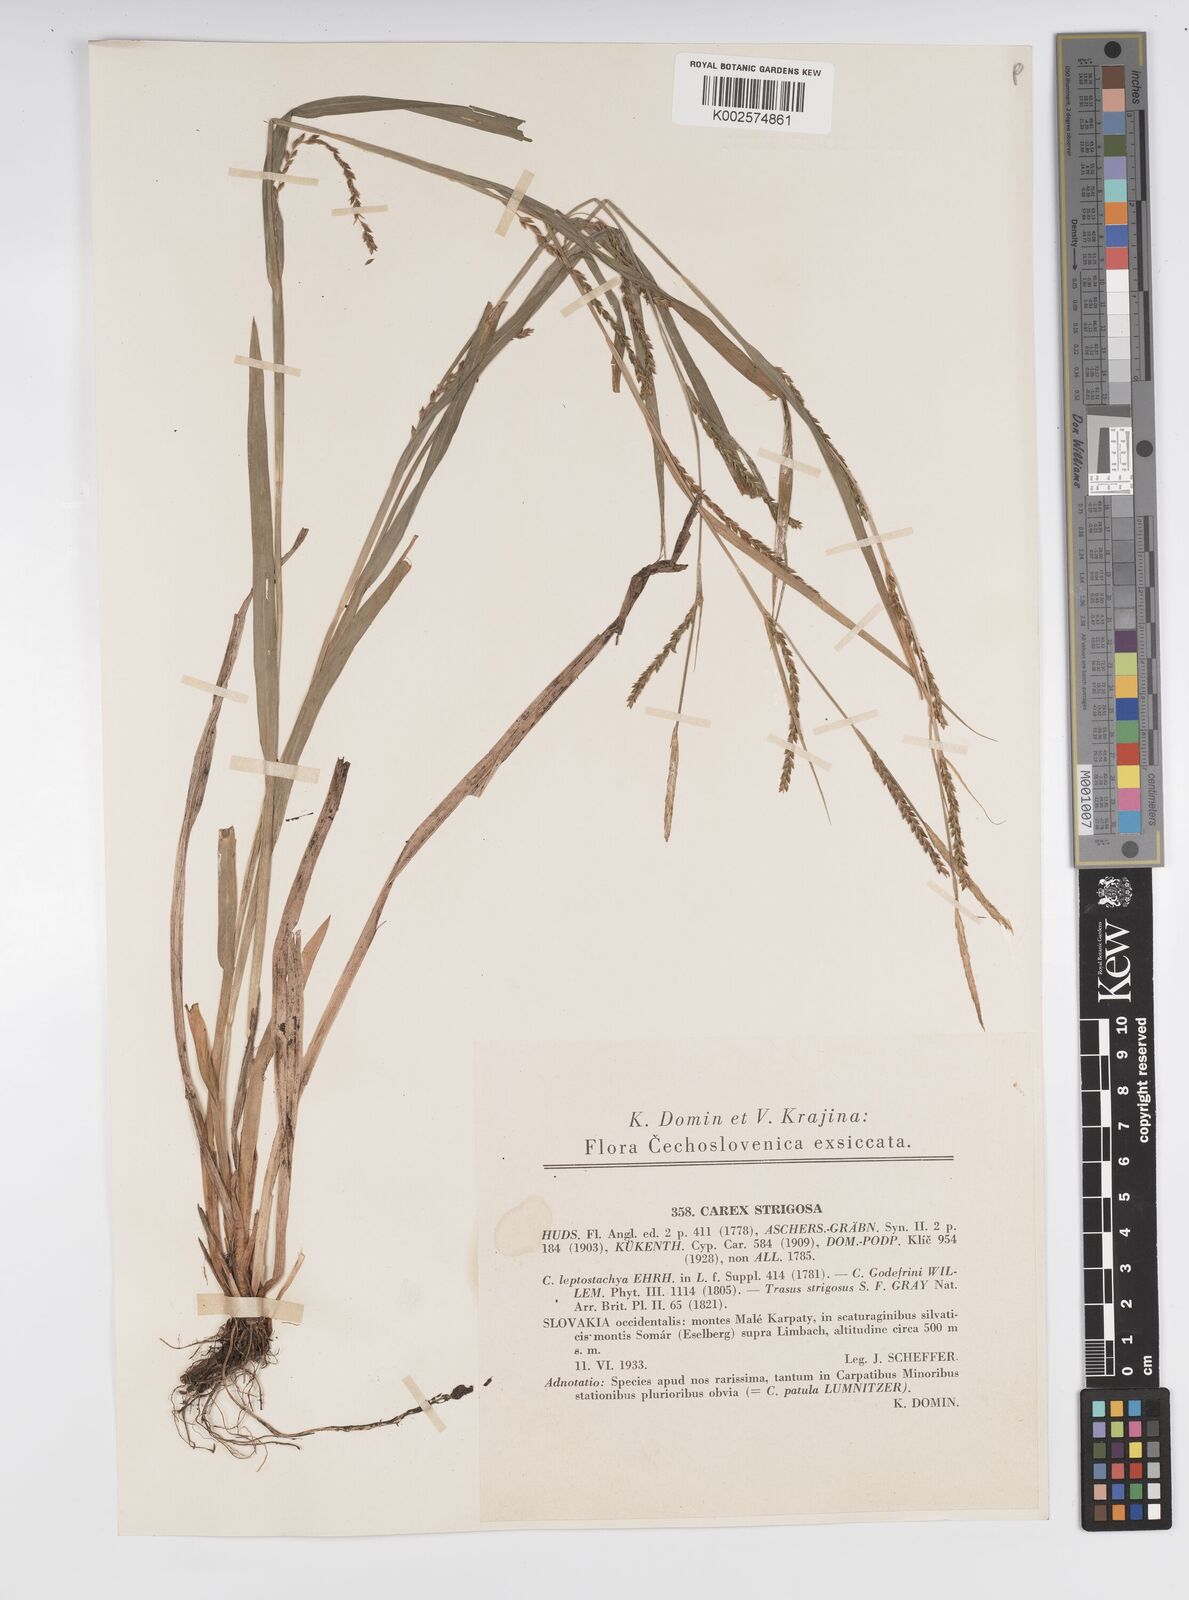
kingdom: Plantae
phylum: Tracheophyta
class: Liliopsida
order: Poales
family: Cyperaceae
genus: Carex
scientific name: Carex strigosa
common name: Thin-spiked wood-sedge
